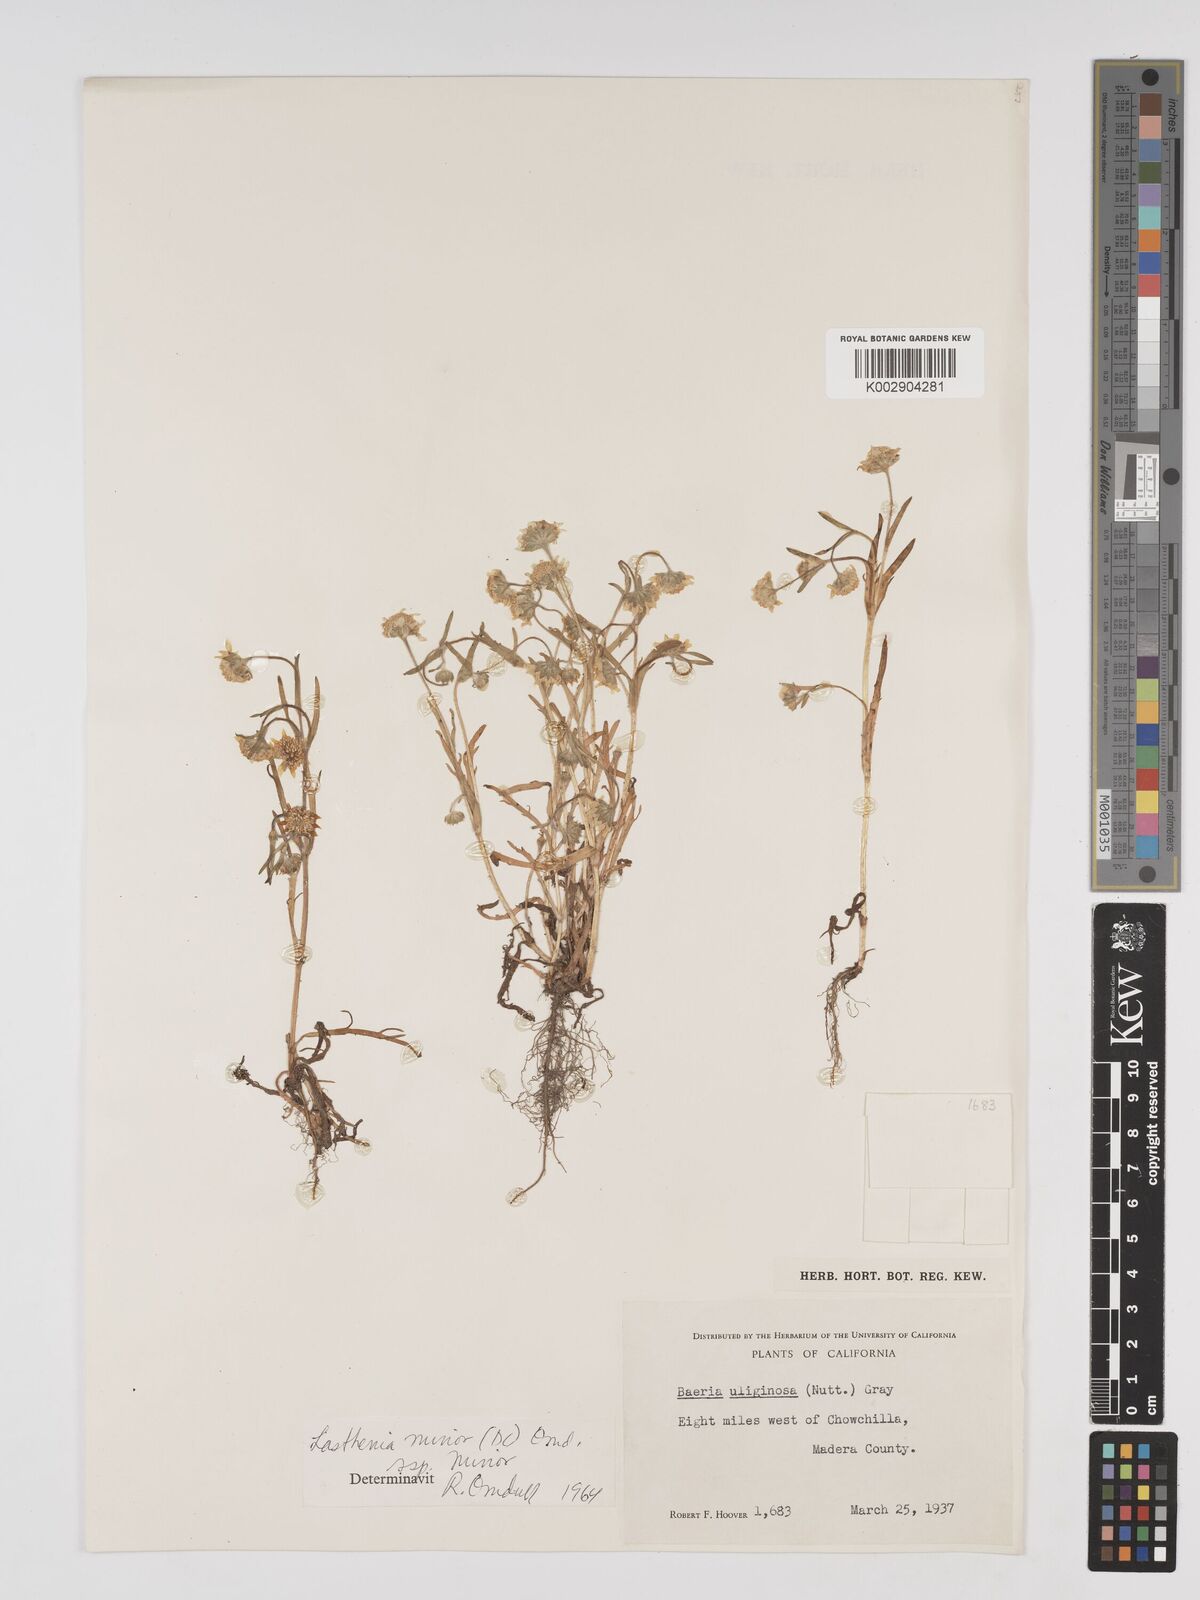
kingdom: Plantae
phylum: Tracheophyta
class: Magnoliopsida
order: Asterales
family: Asteraceae
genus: Lasthenia
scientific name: Lasthenia minor
